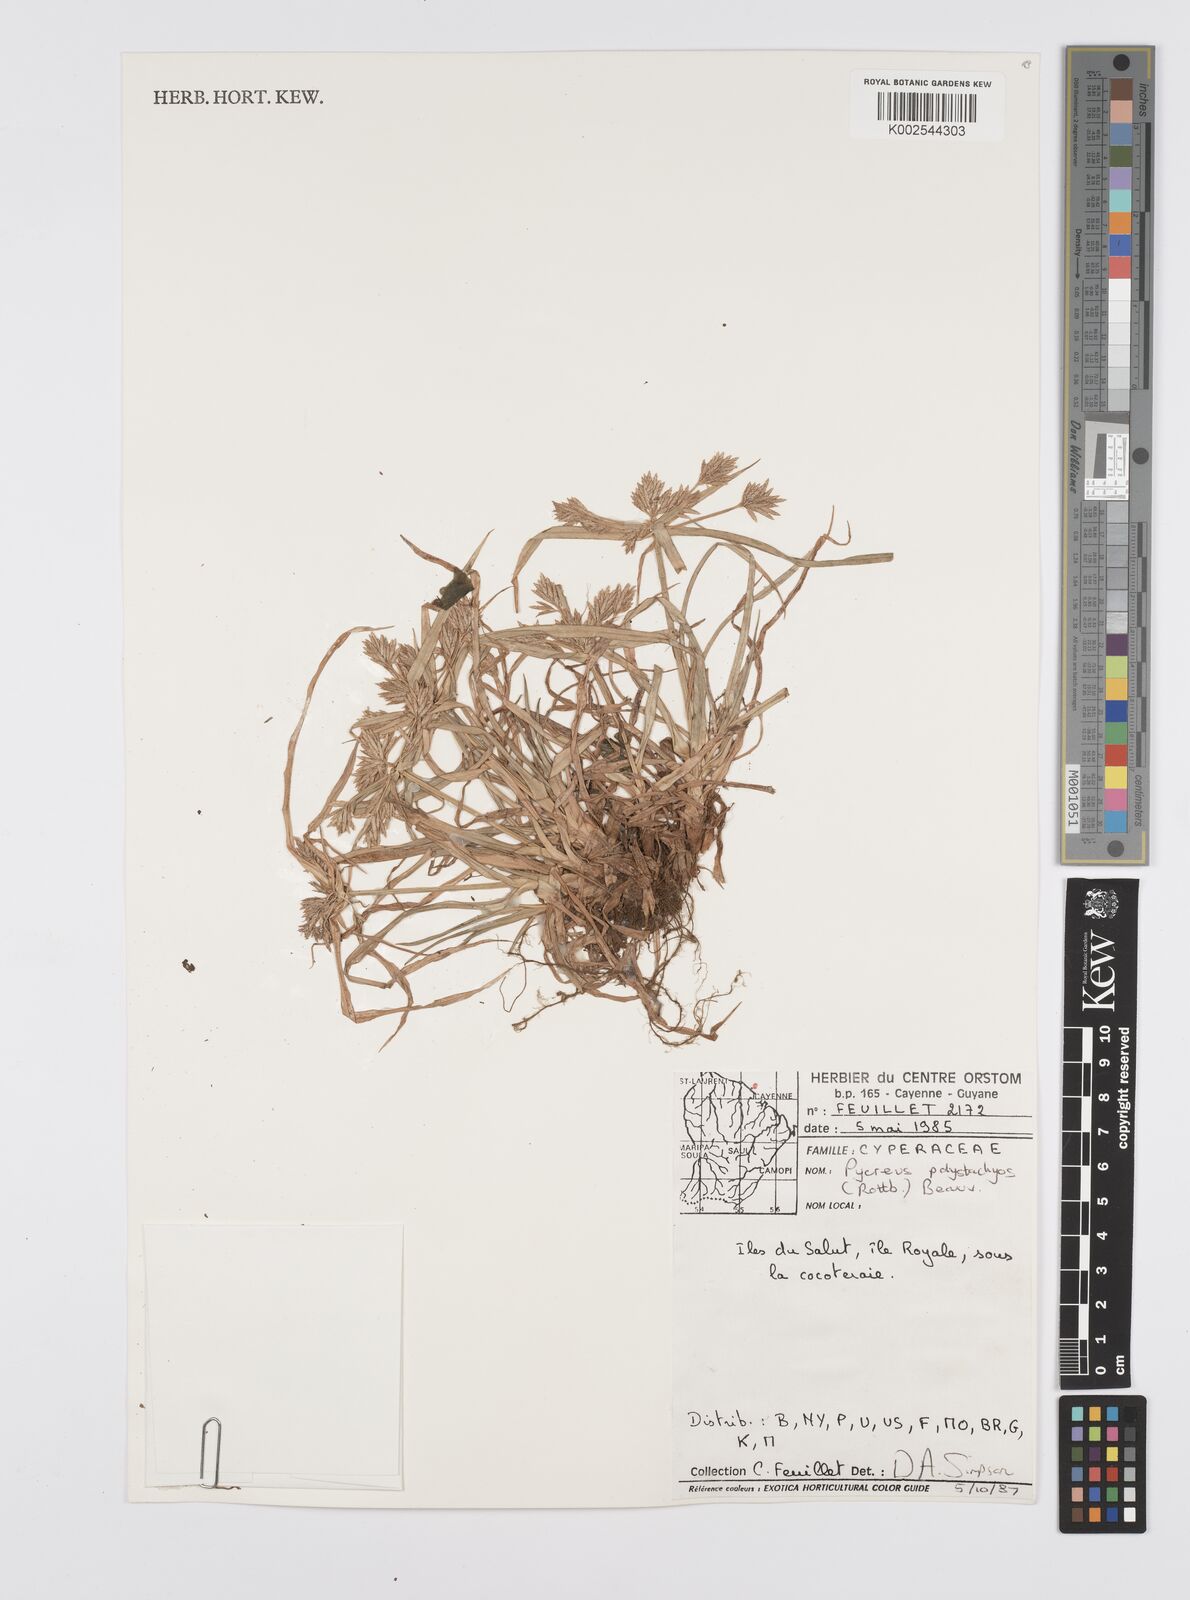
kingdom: Plantae
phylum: Tracheophyta
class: Liliopsida
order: Poales
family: Cyperaceae
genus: Cyperus
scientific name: Cyperus polystachyos
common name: Bunchy flat sedge
